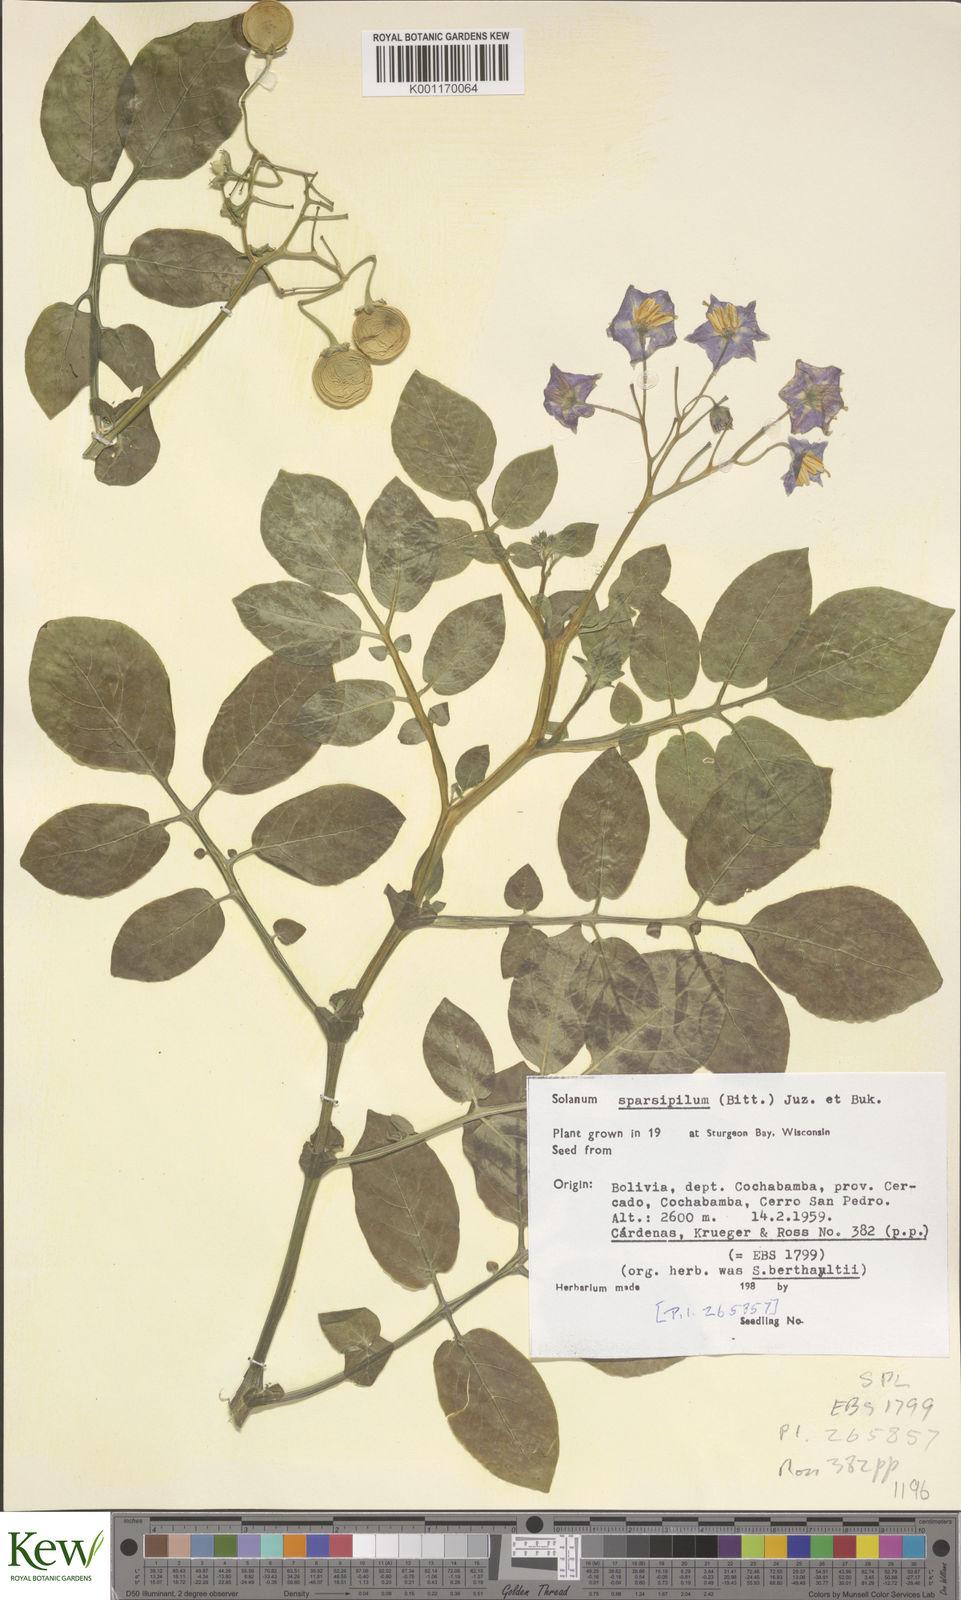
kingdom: Plantae
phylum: Tracheophyta
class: Magnoliopsida
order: Solanales
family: Solanaceae
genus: Solanum
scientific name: Solanum brevicaule
